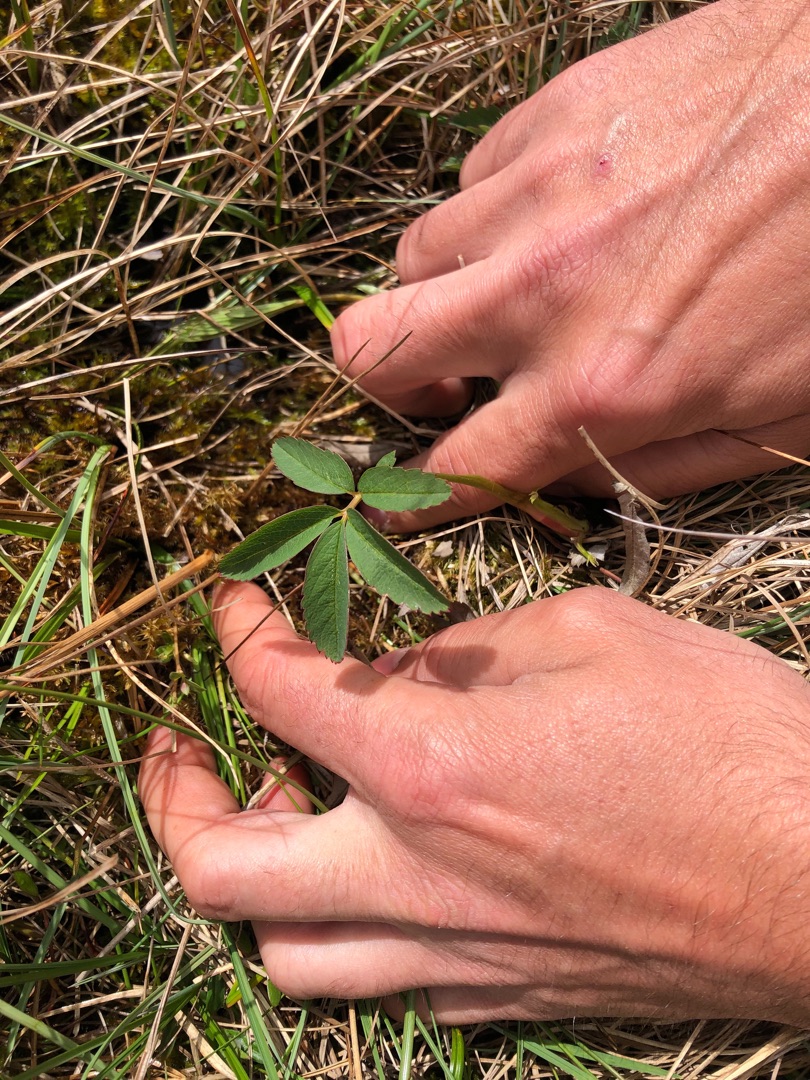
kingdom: Plantae
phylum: Tracheophyta
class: Magnoliopsida
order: Rosales
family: Rosaceae
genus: Comarum
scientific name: Comarum palustre
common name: Kragefod
